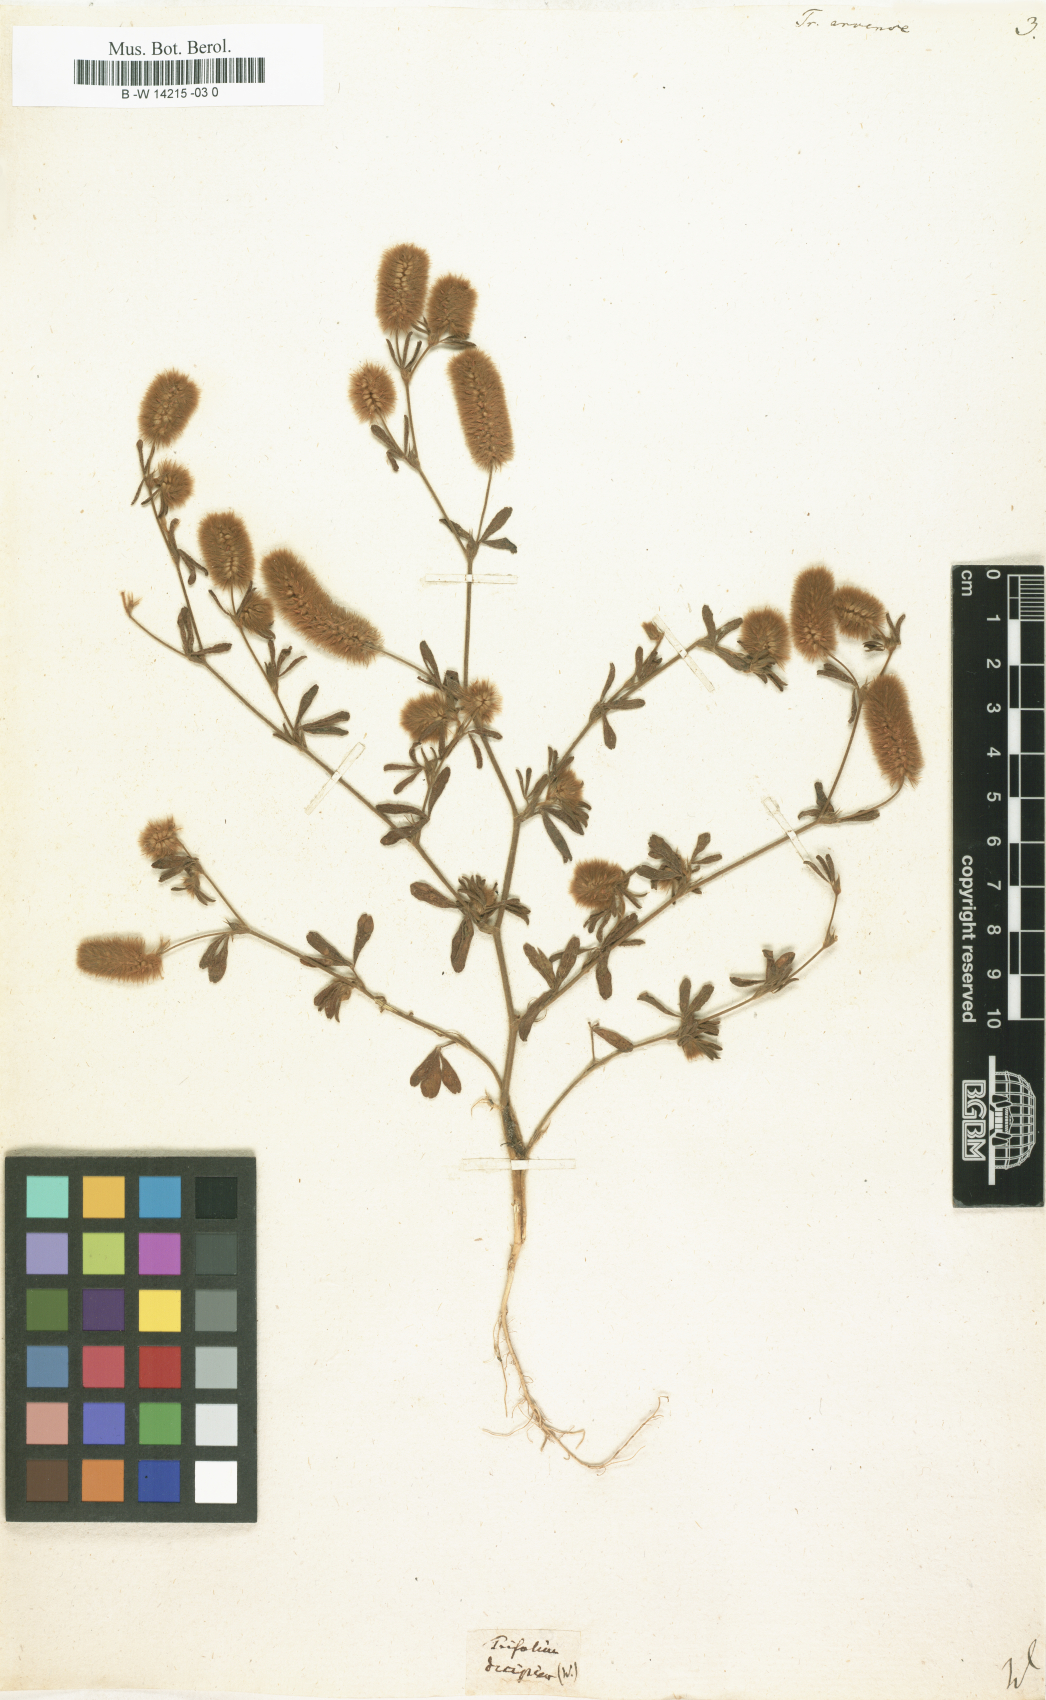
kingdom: Plantae
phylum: Tracheophyta
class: Magnoliopsida
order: Fabales
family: Fabaceae
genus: Trifolium
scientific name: Trifolium arvense
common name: Hare's-foot clover
